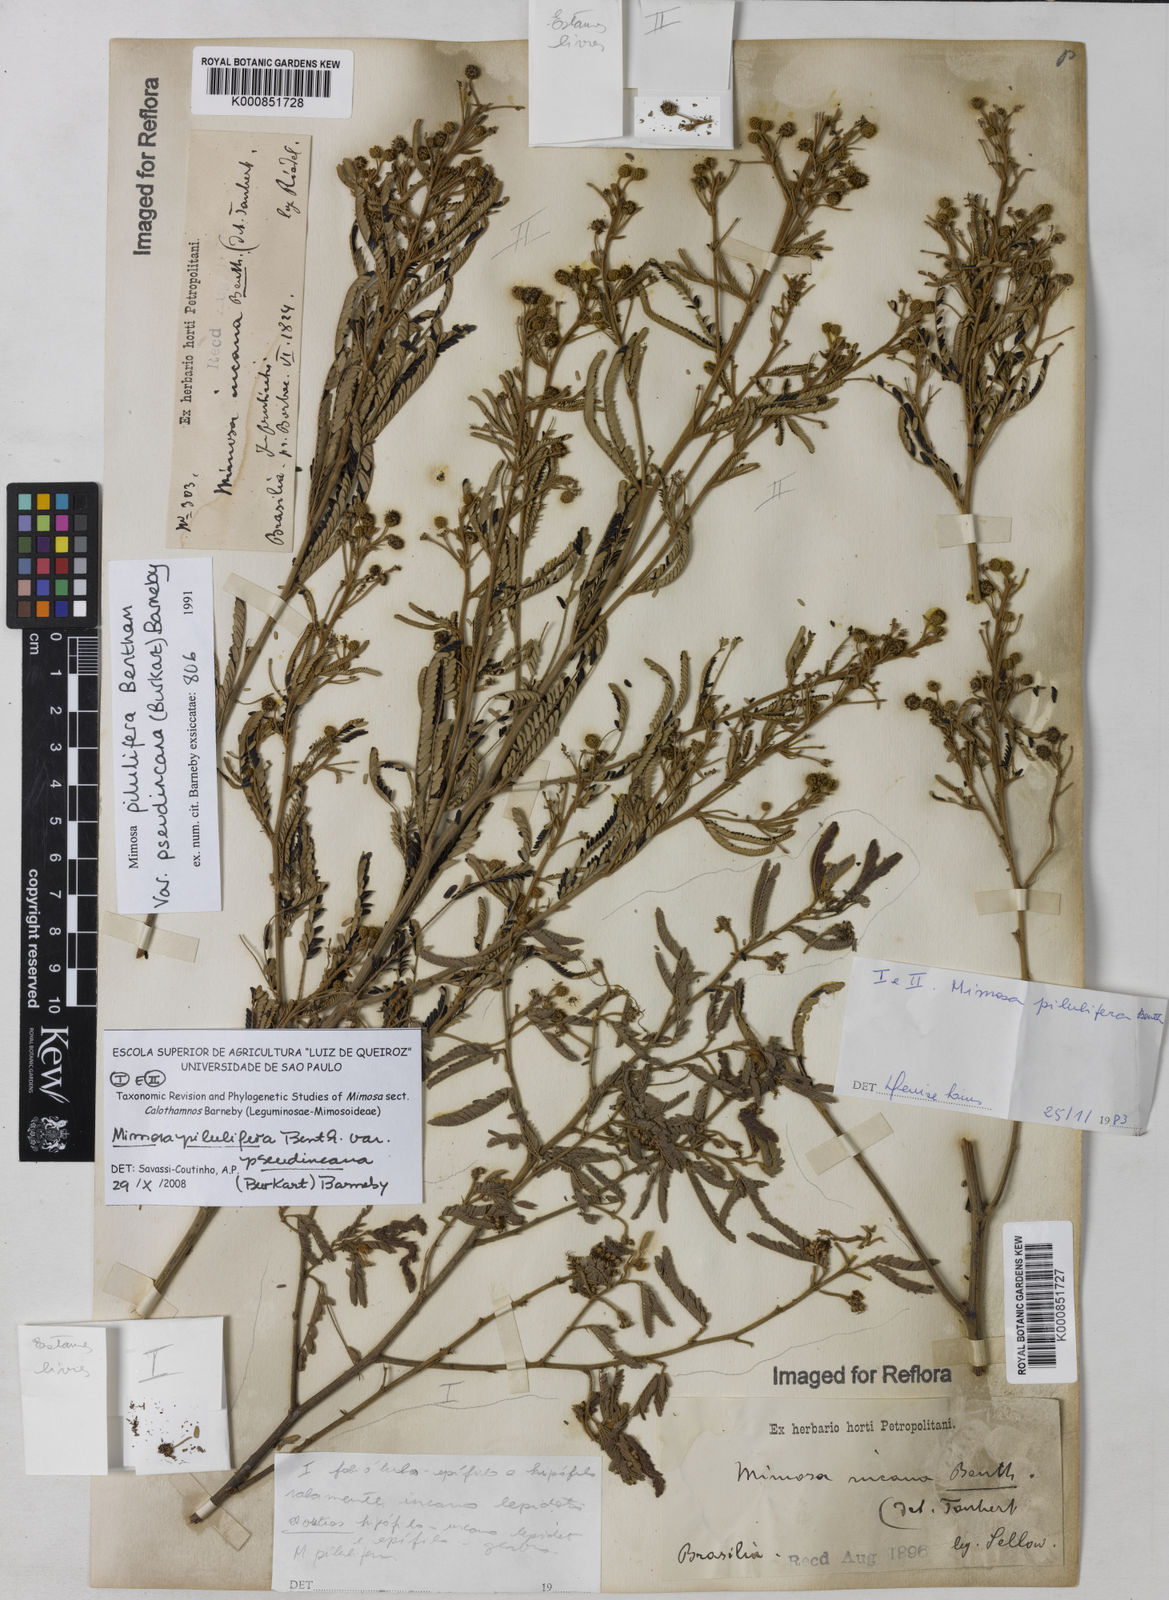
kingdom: Plantae
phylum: Tracheophyta
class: Magnoliopsida
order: Fabales
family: Fabaceae
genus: Mimosa
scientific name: Mimosa pilulifera
